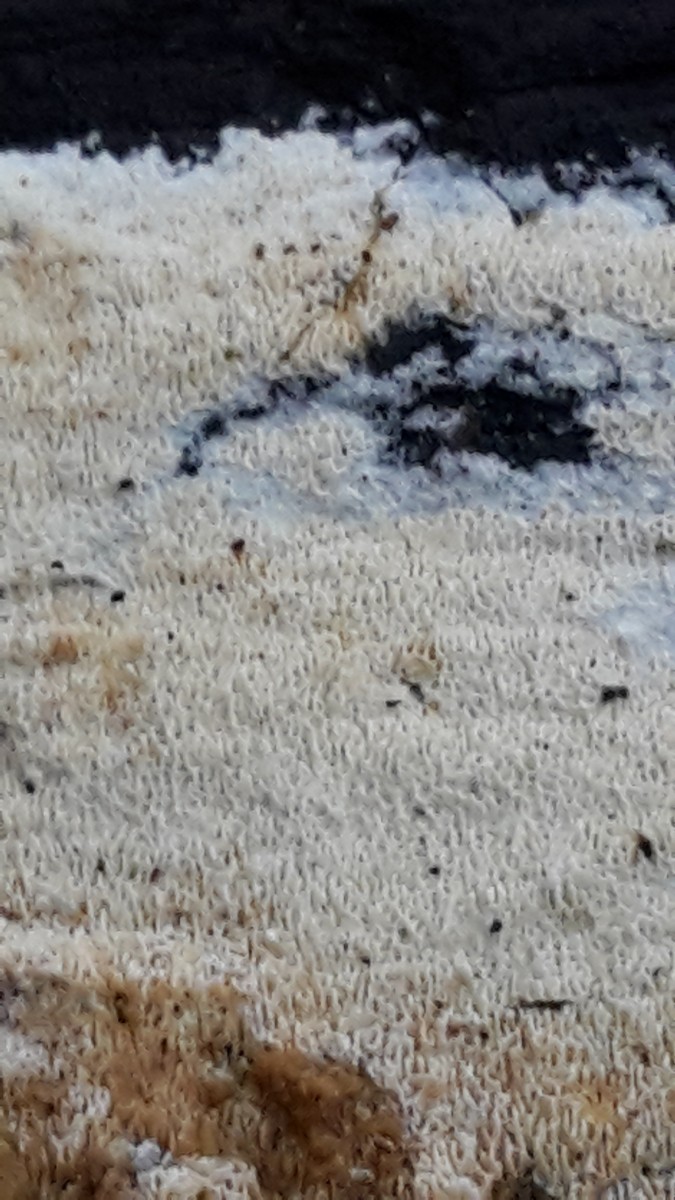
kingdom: Fungi
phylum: Basidiomycota
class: Agaricomycetes
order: Hymenochaetales
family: Schizoporaceae
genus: Xylodon
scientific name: Xylodon subtropicus
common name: labyrint-tandsvamp
